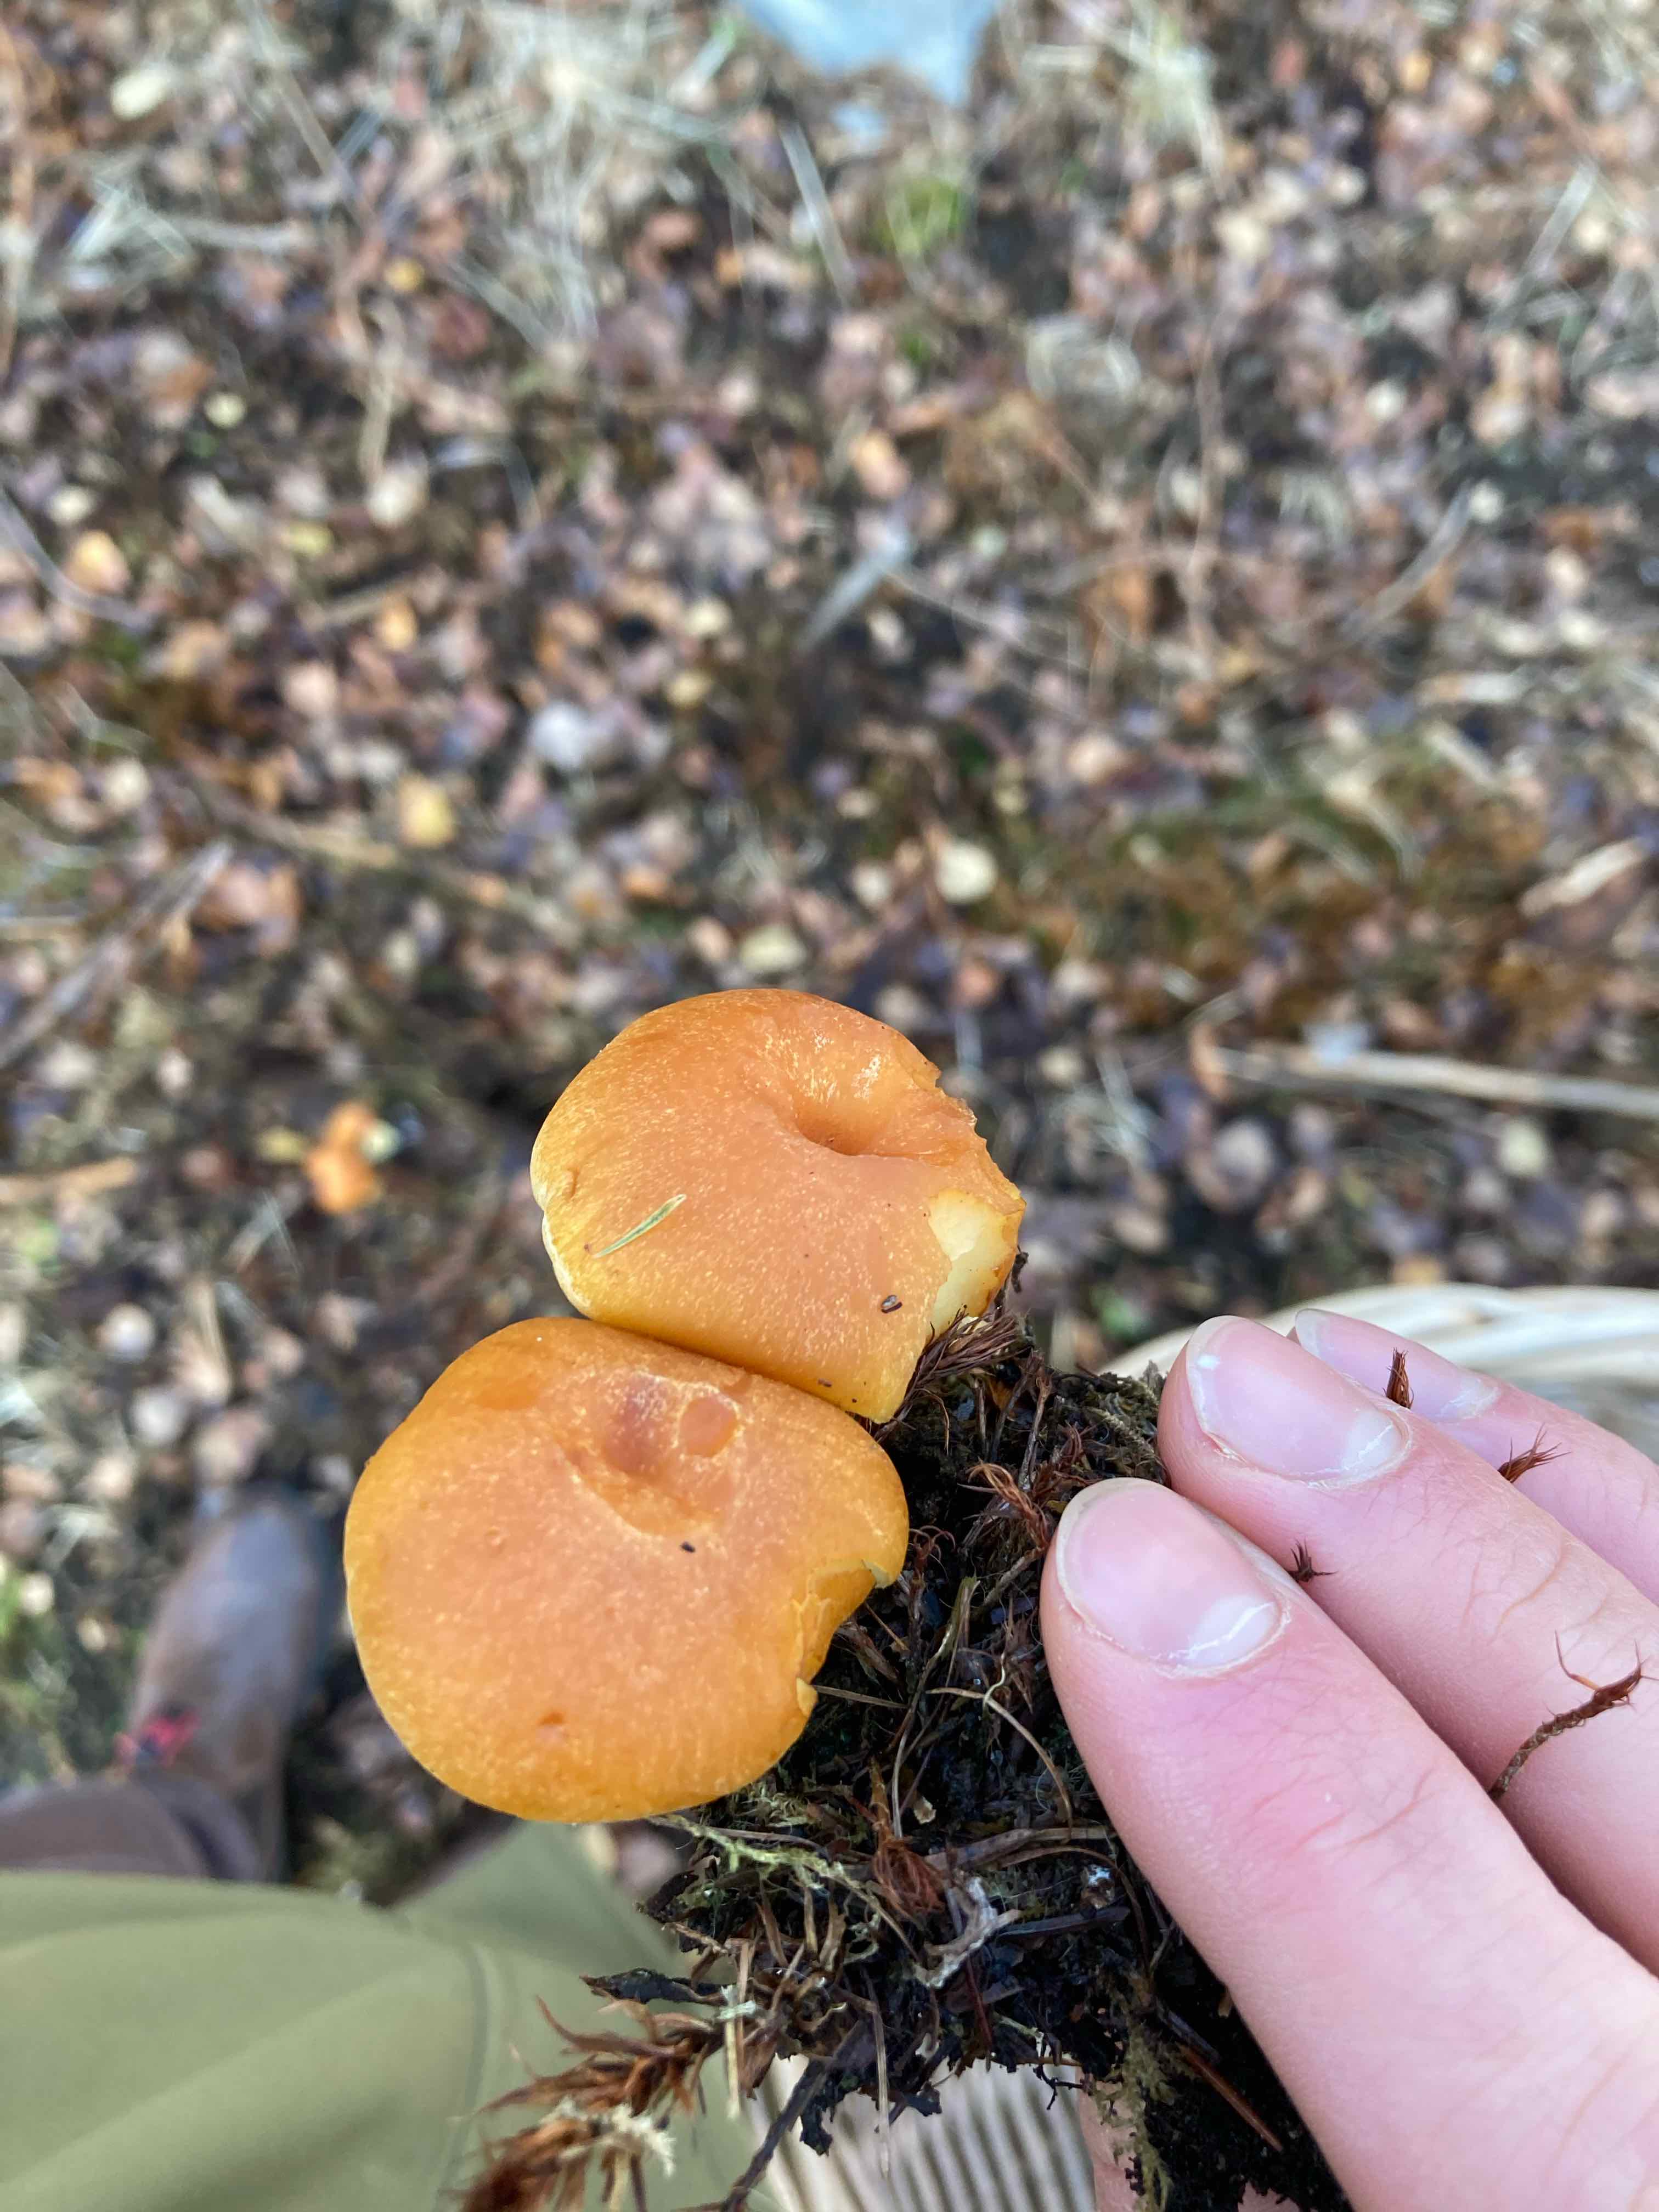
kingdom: Fungi
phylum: Basidiomycota
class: Agaricomycetes
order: Agaricales
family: Hymenogastraceae
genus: Gymnopilus
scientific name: Gymnopilus penetrans
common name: plettet flammehat
